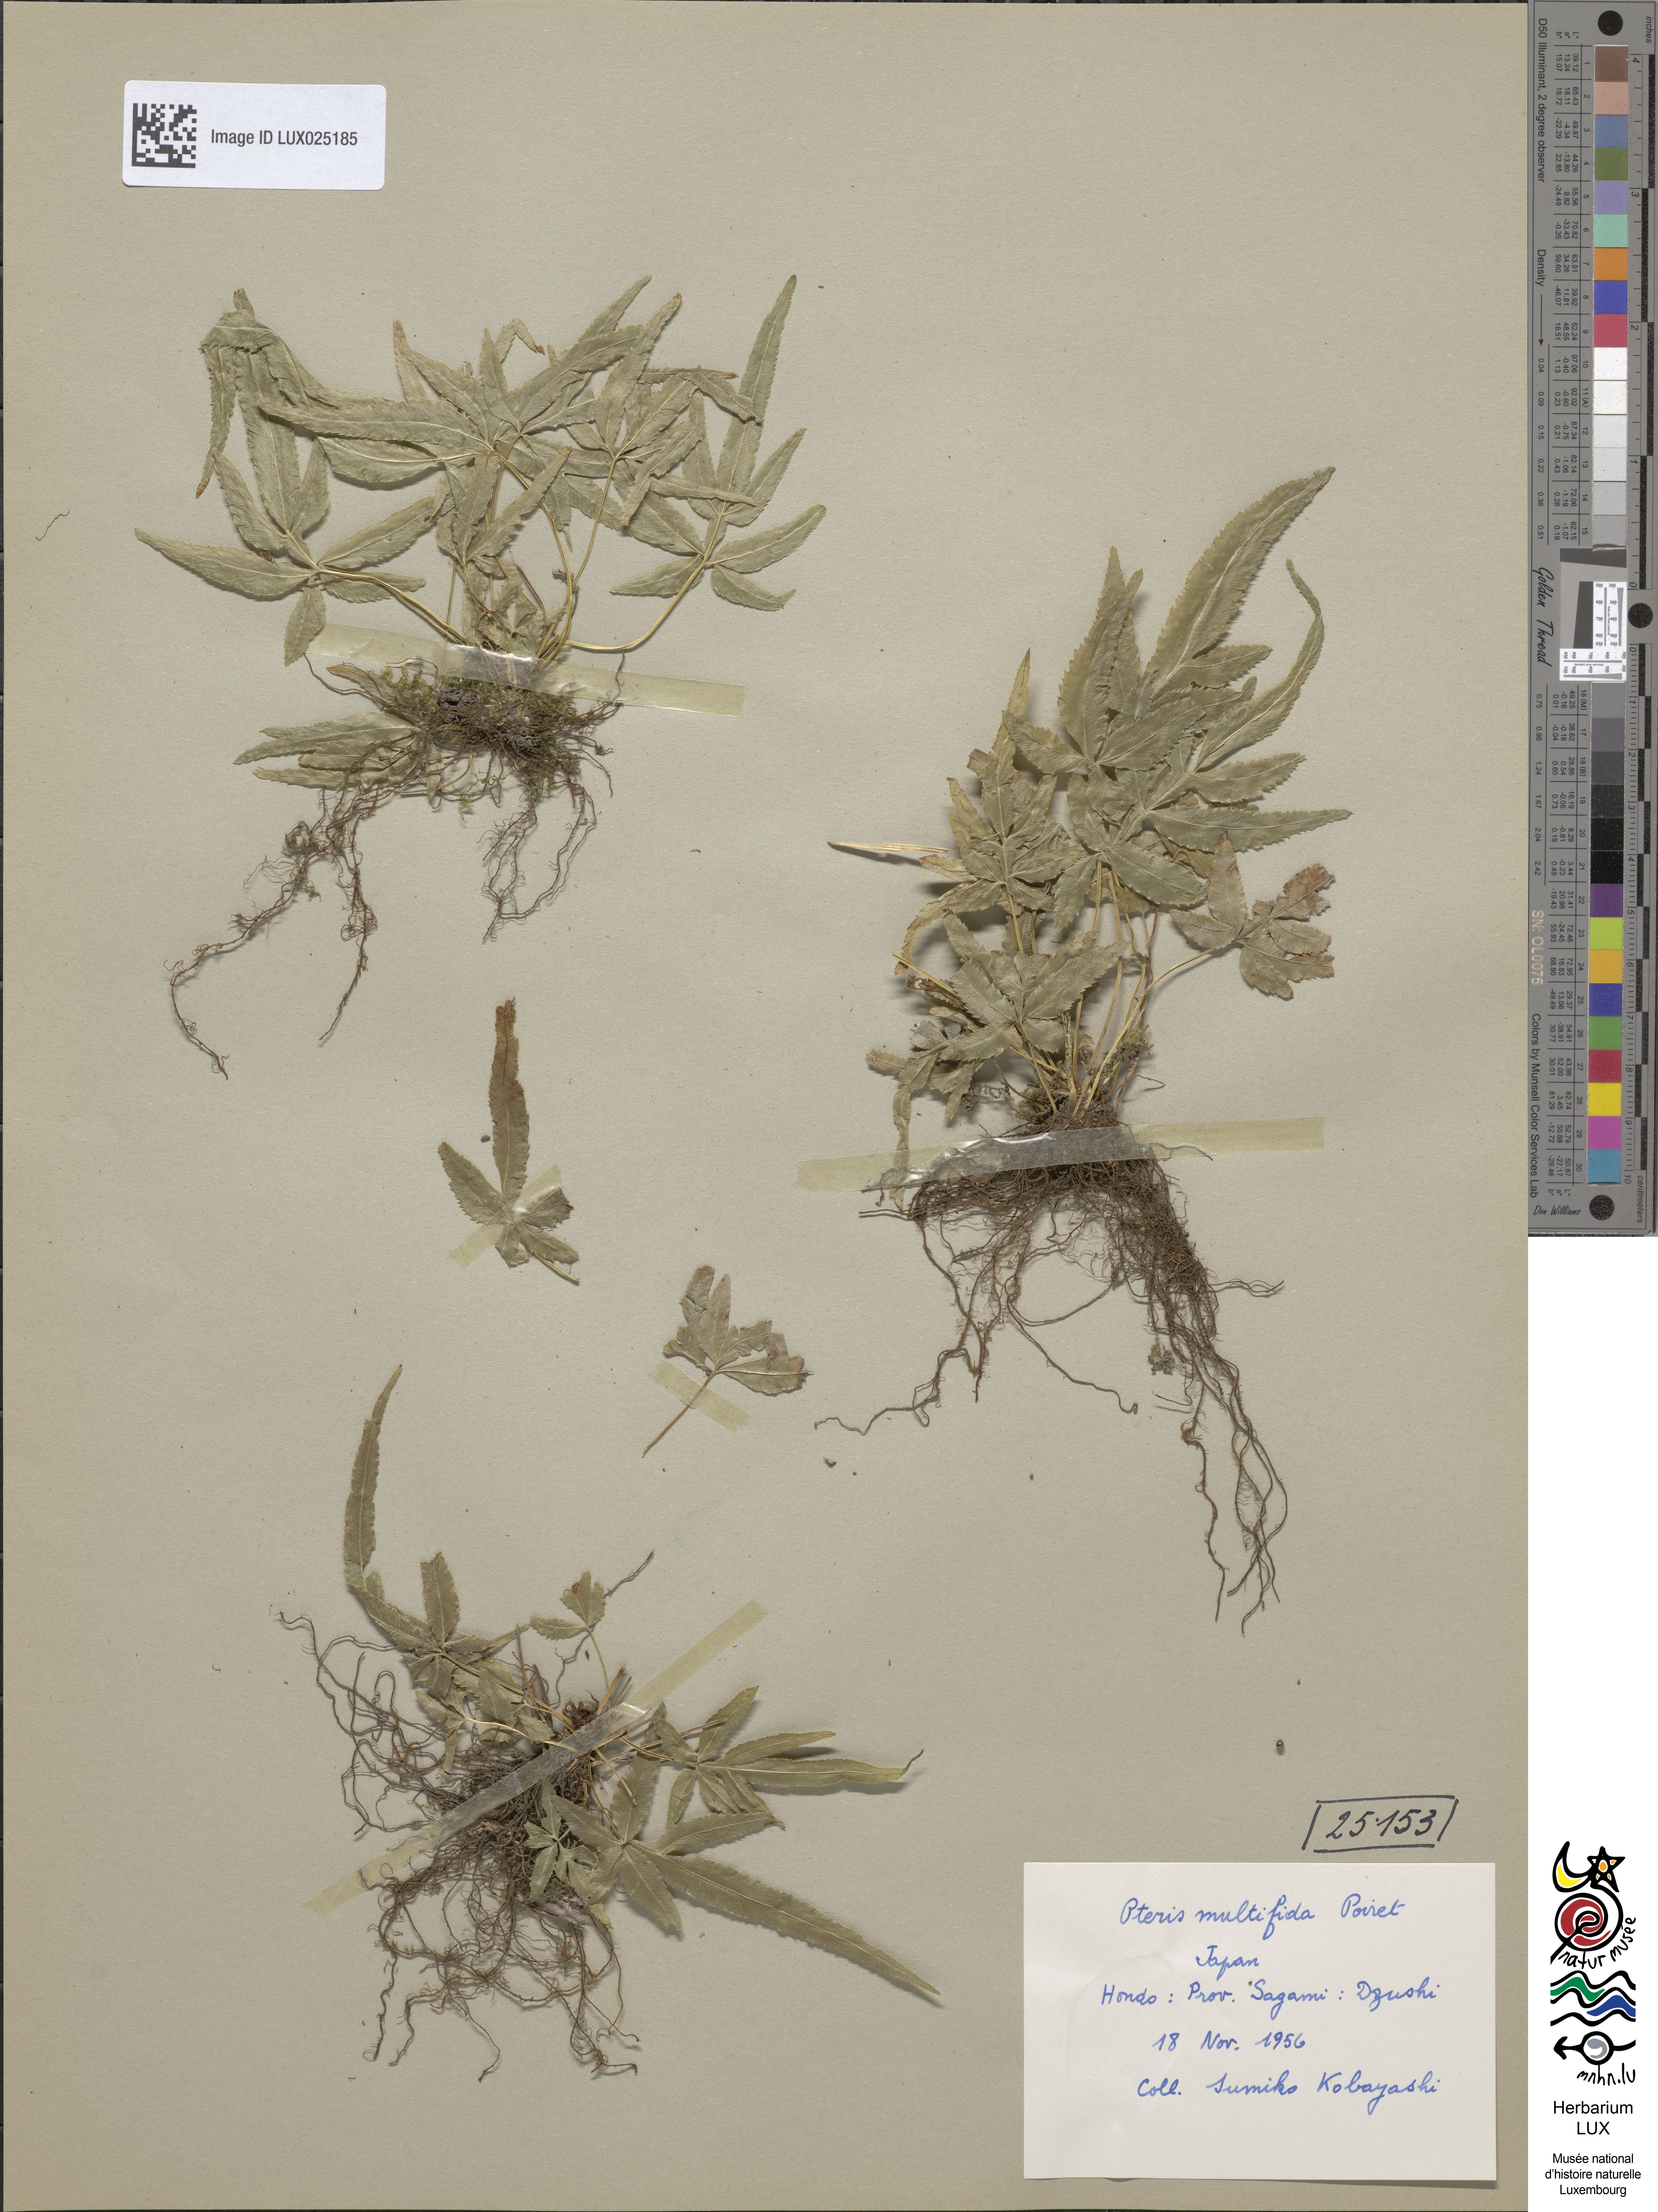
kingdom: Plantae
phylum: Tracheophyta
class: Polypodiopsida
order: Polypodiales
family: Pteridaceae
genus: Pteris
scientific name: Pteris multifida
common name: Spider brake
